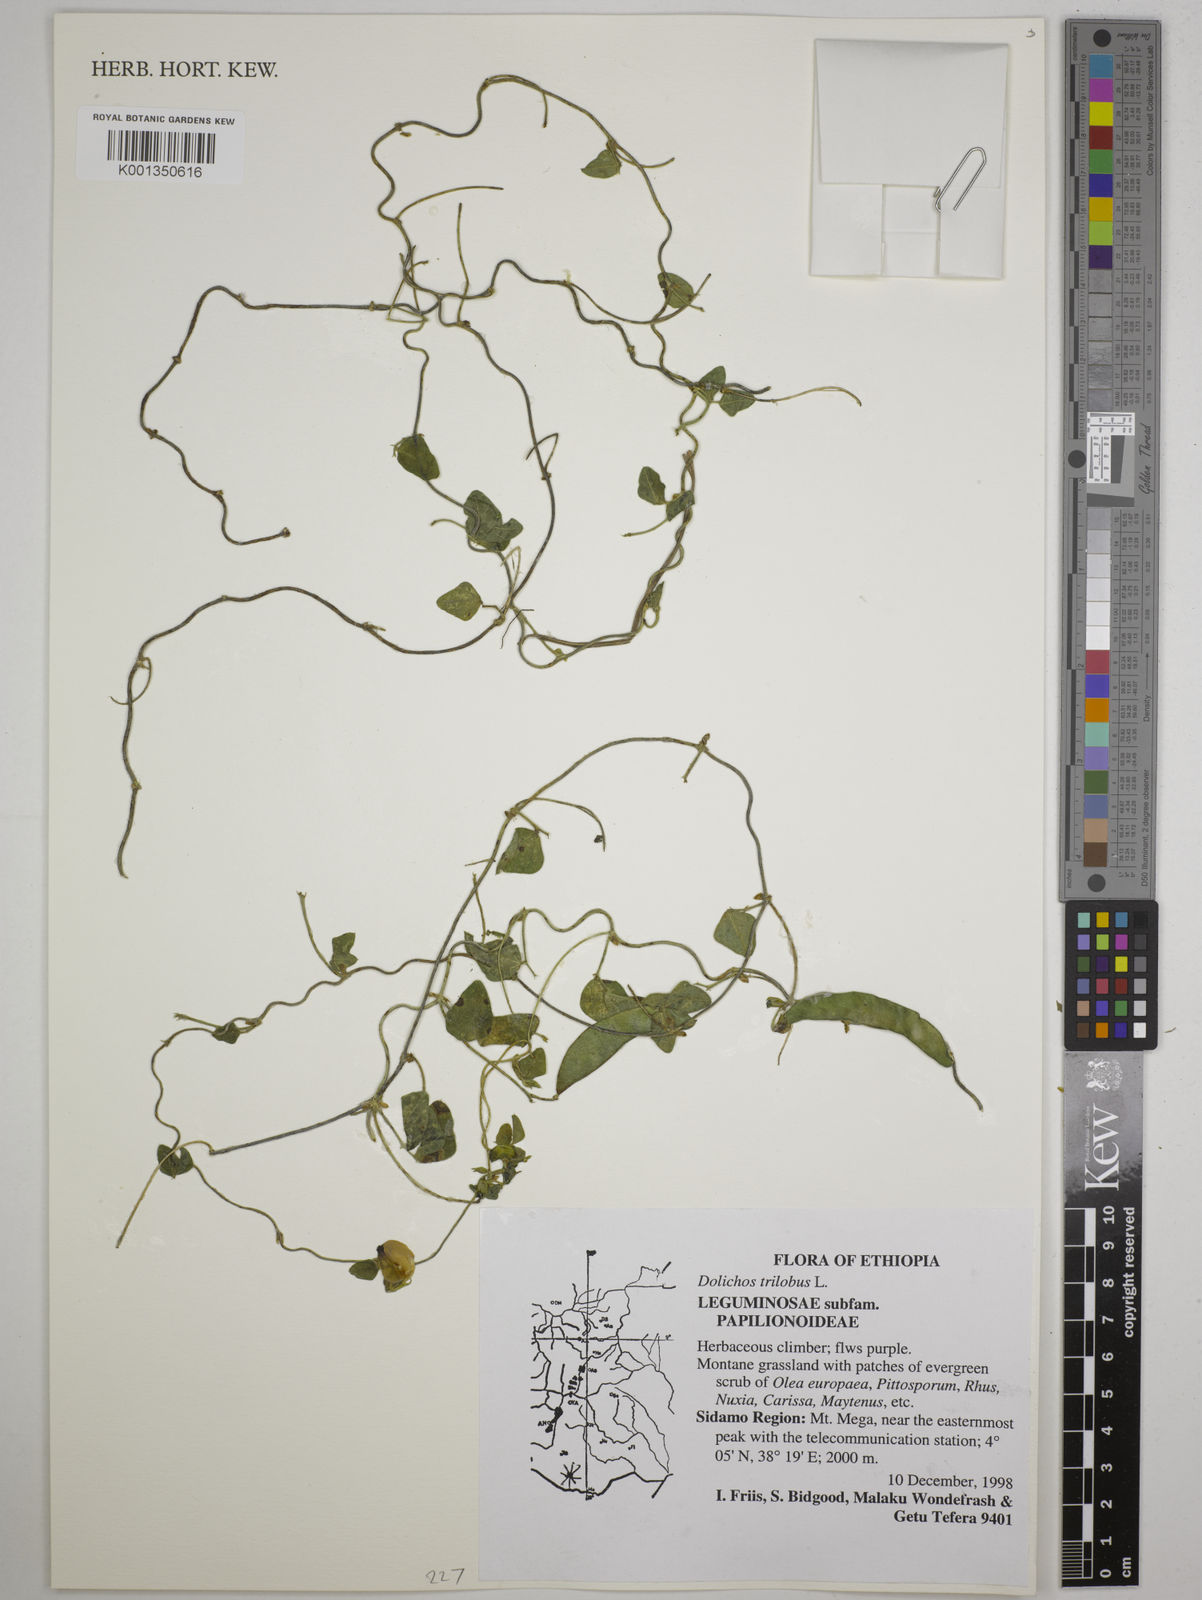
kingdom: Plantae
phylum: Tracheophyta
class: Magnoliopsida
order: Fabales
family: Fabaceae
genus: Dolichos
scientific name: Dolichos trilobus
